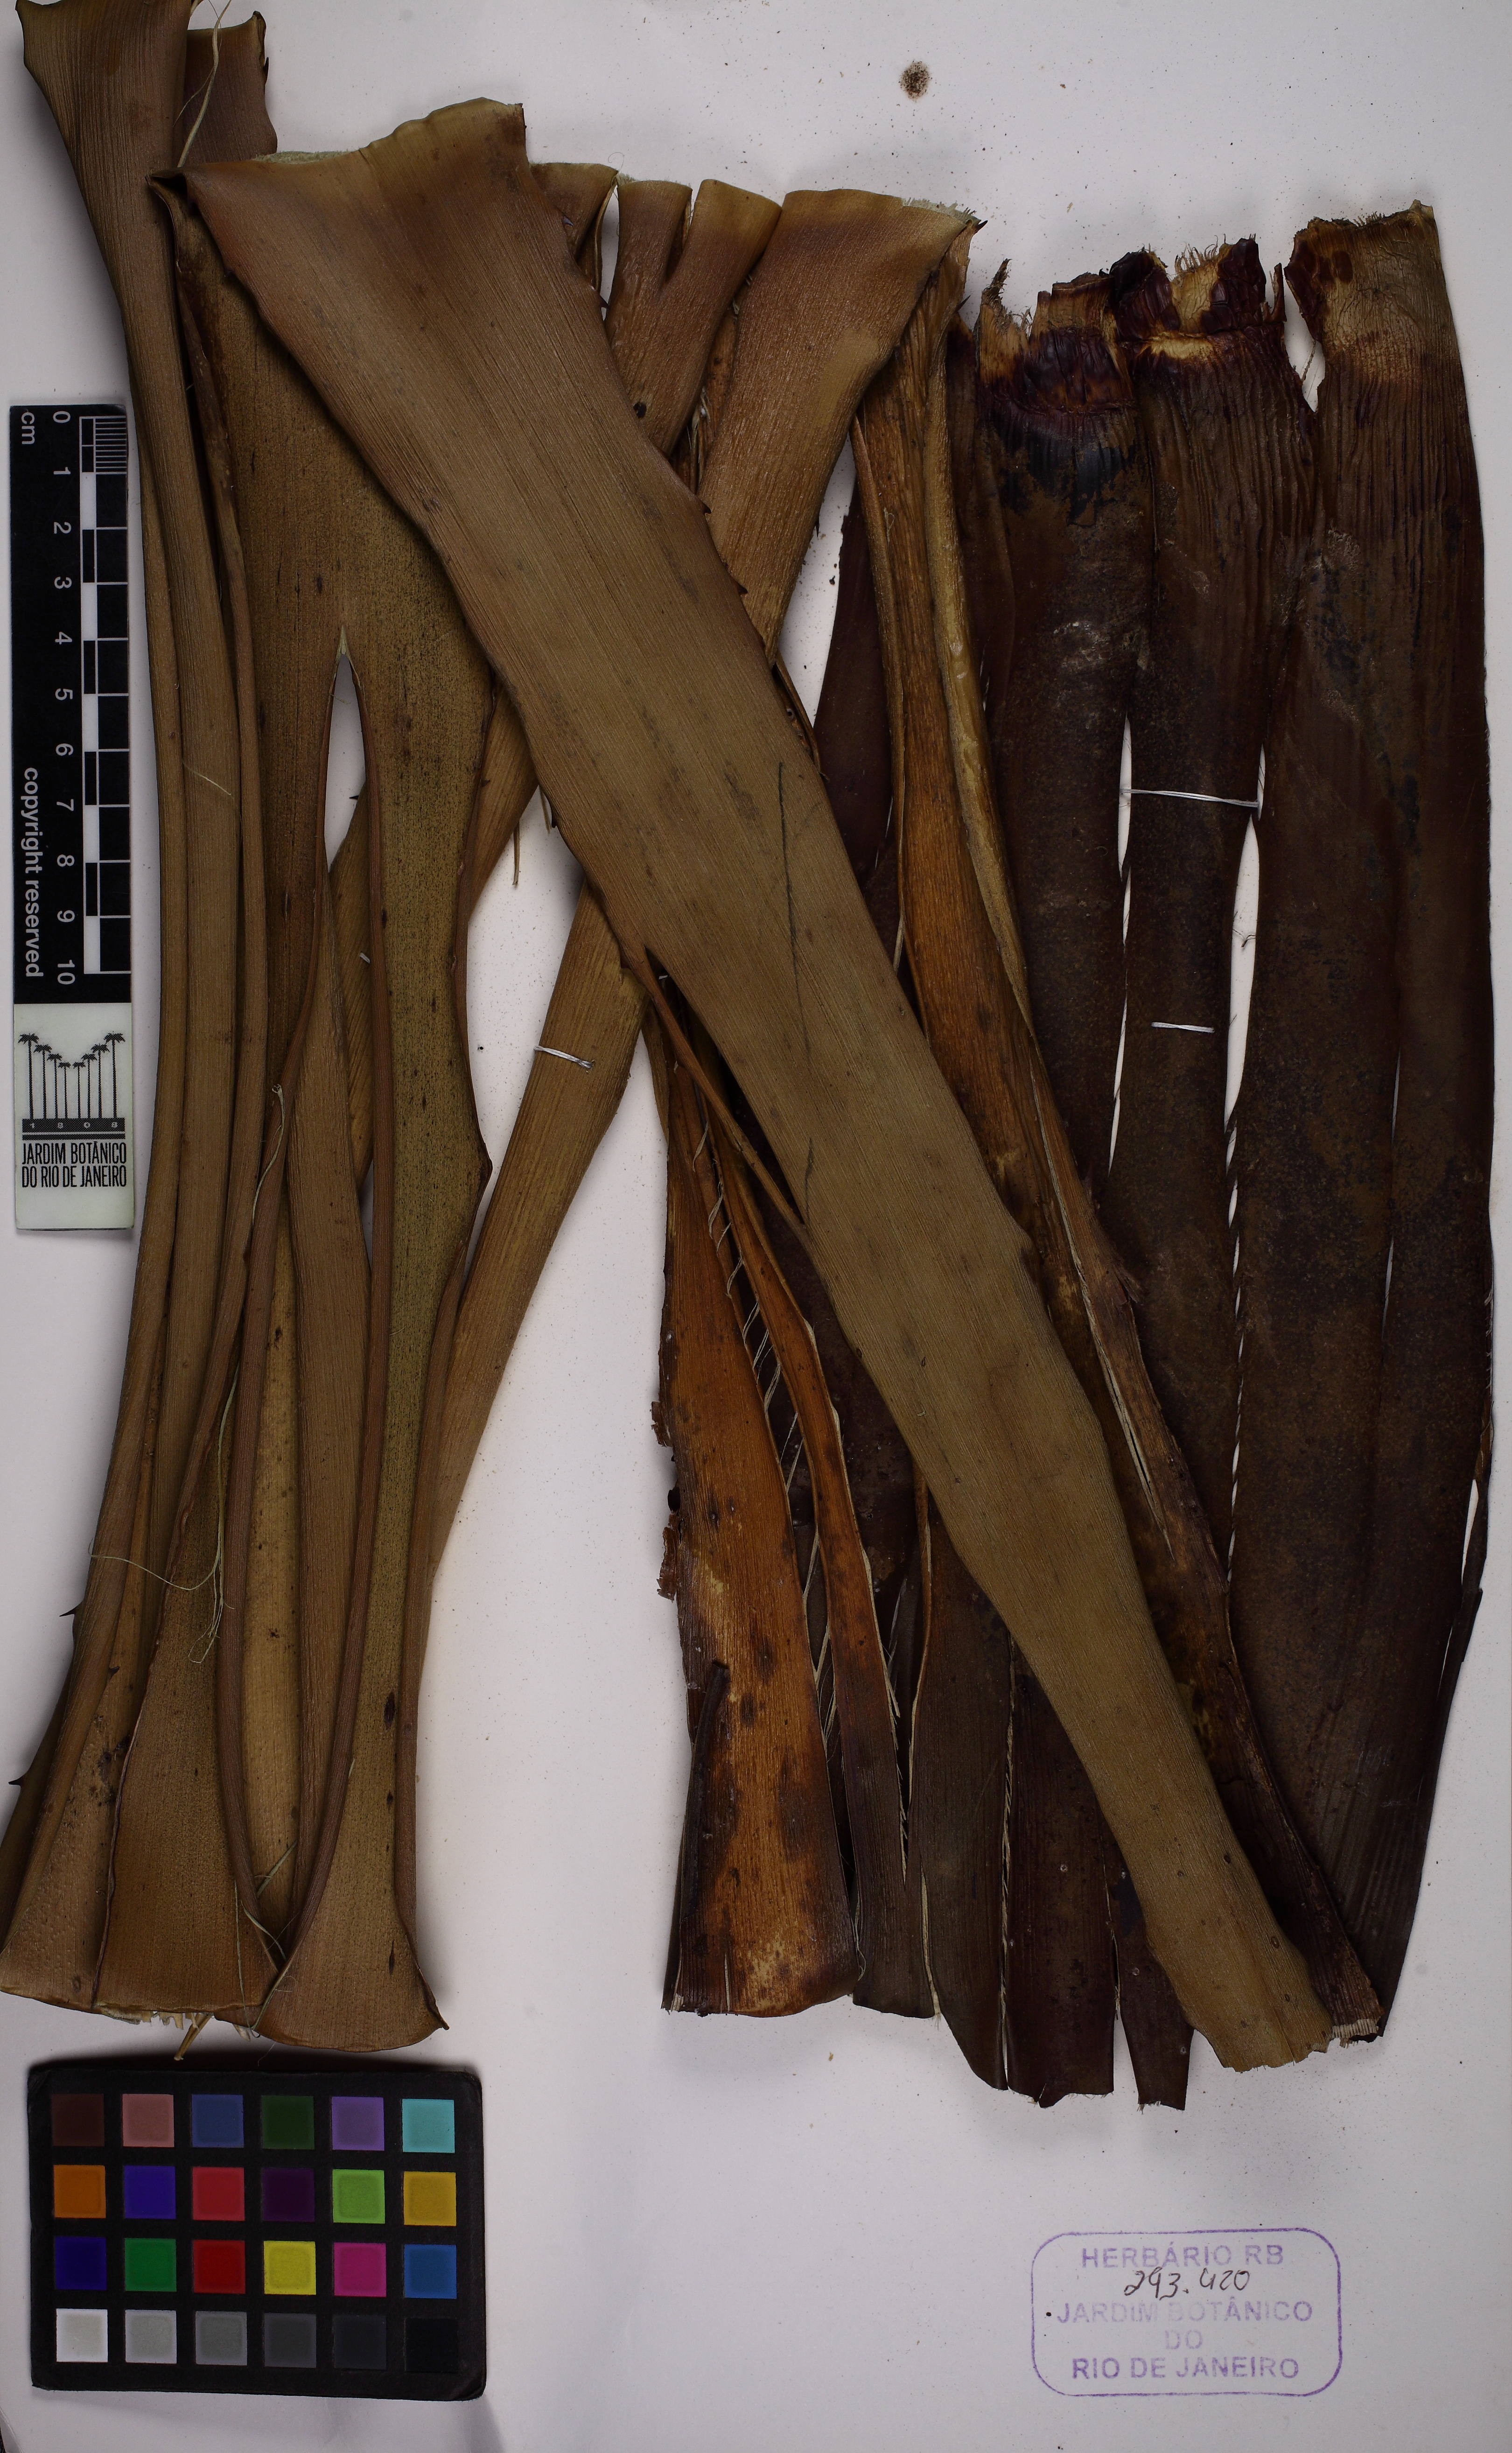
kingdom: Plantae
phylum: Tracheophyta
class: Liliopsida
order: Poales
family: Bromeliaceae
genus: Aechmea
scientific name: Aechmea sphaerocephala
